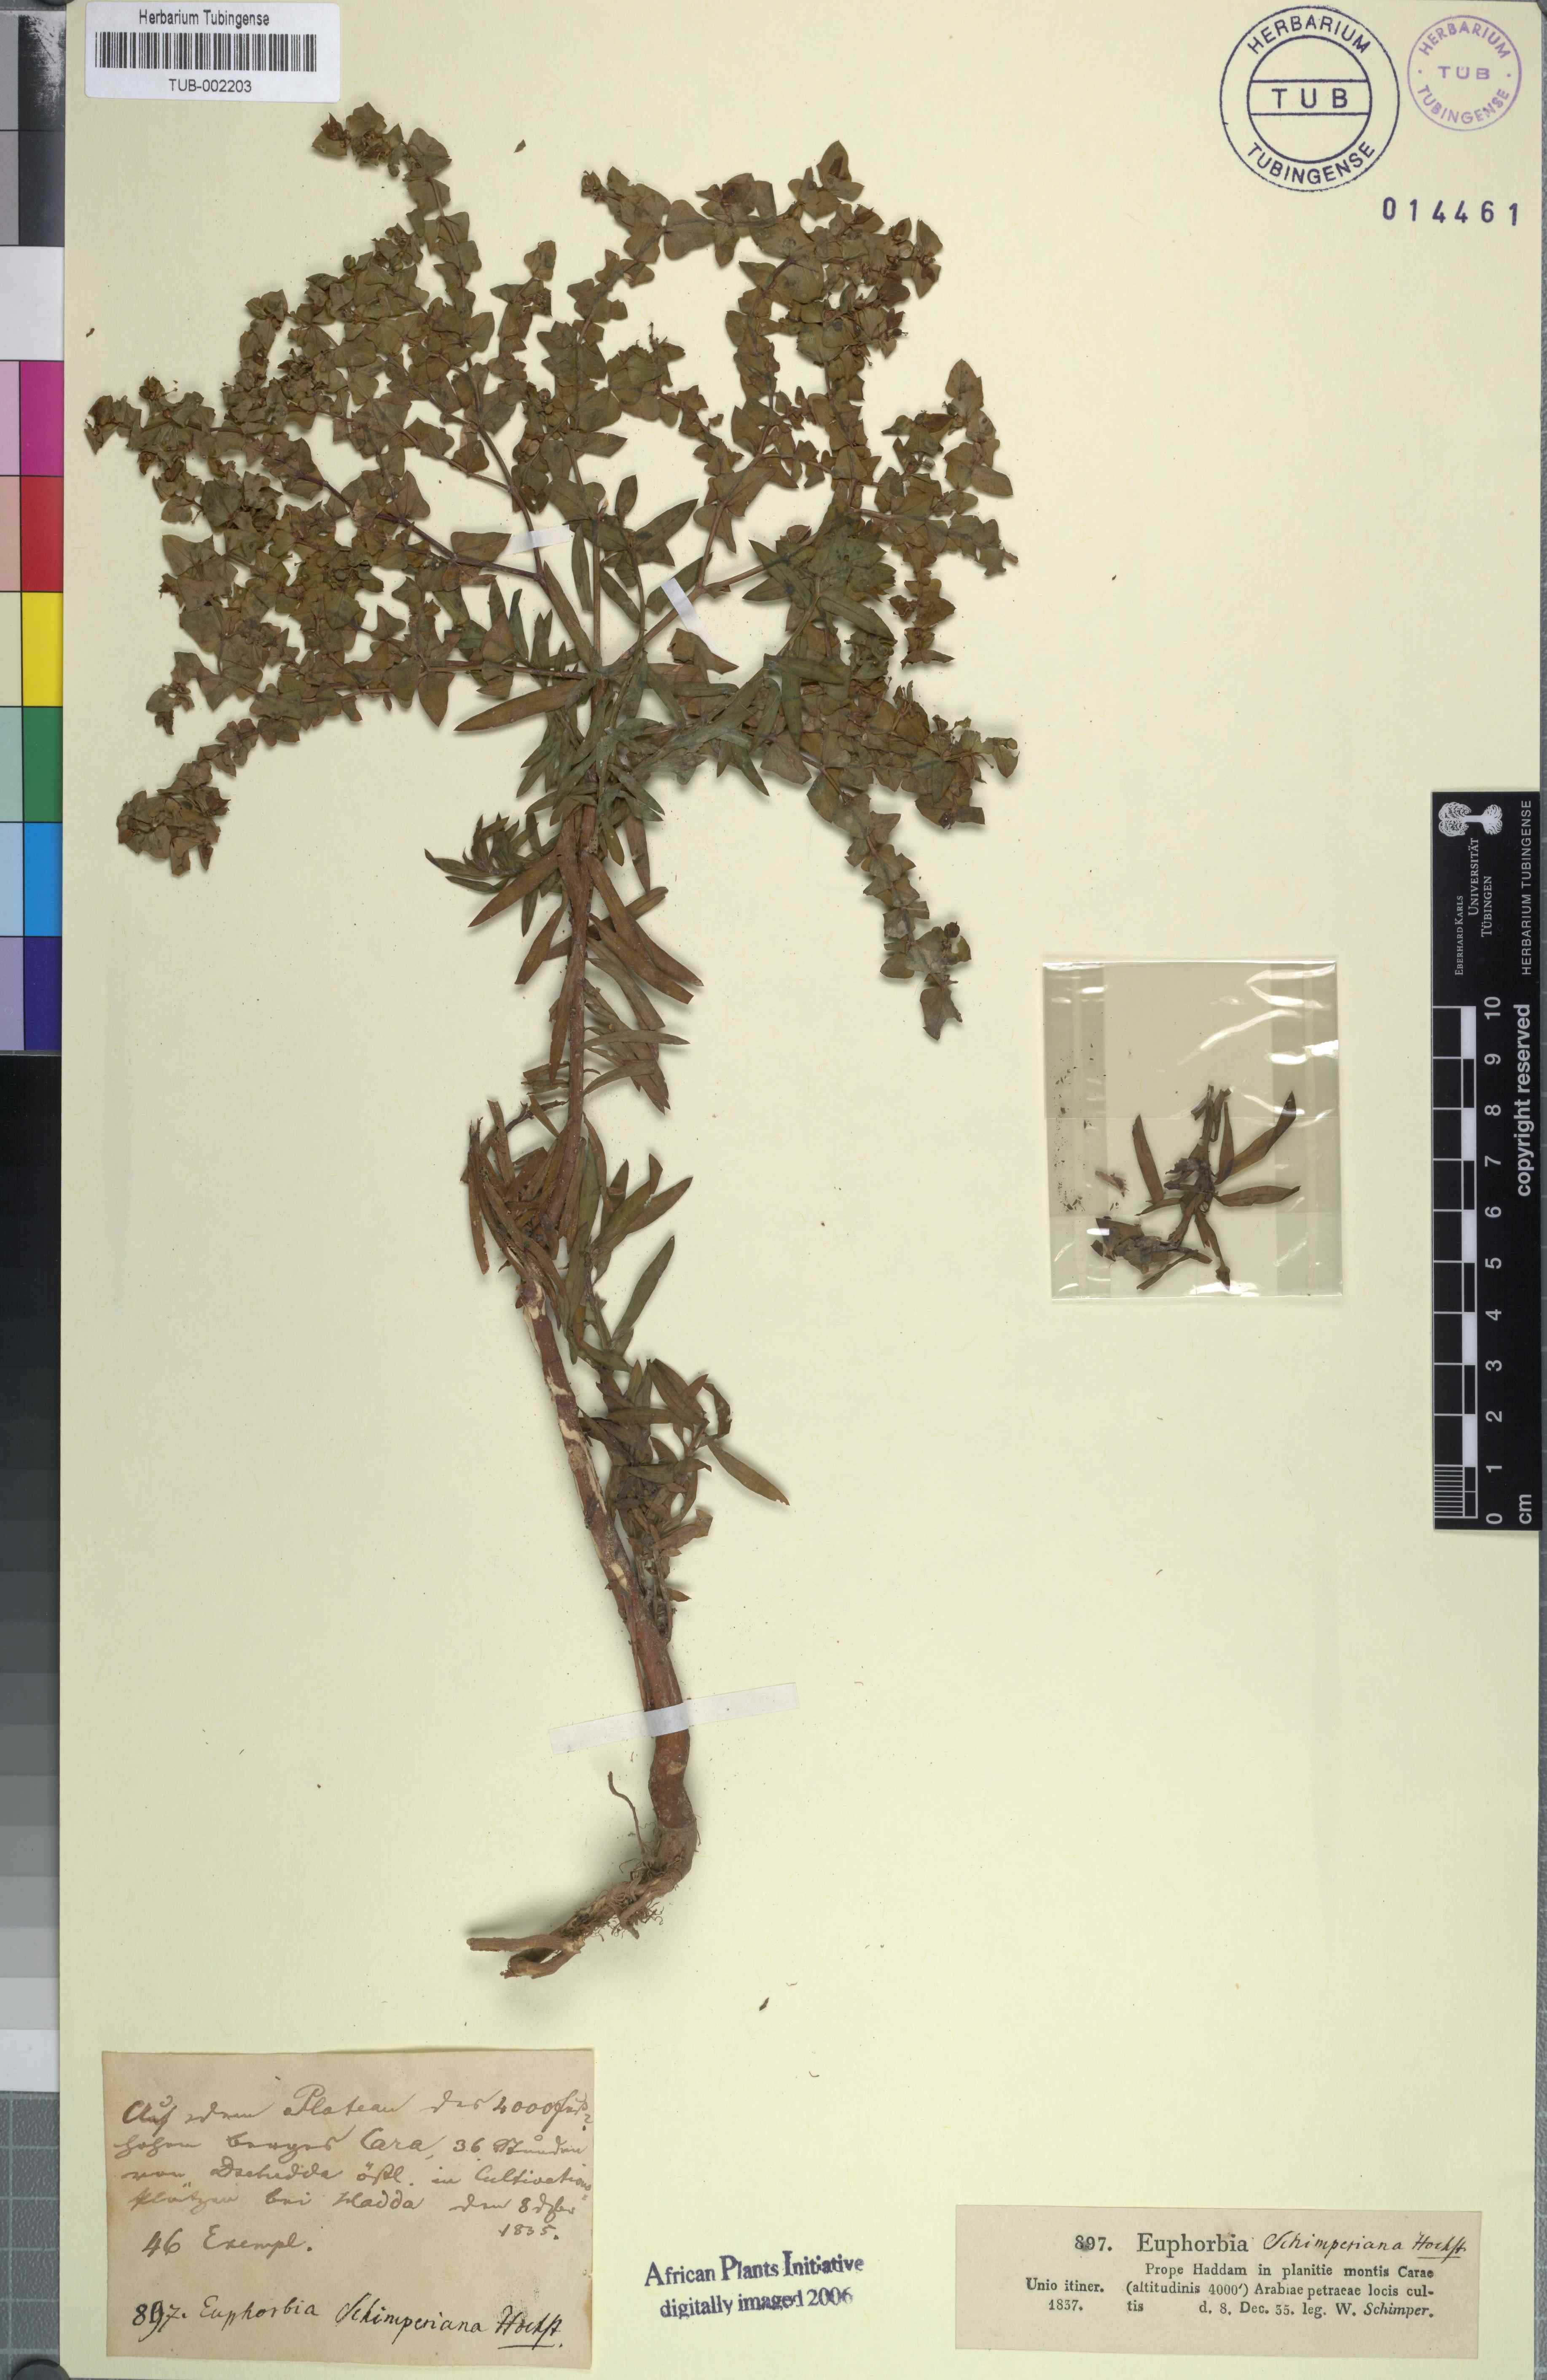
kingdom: Plantae
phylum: Tracheophyta
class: Magnoliopsida
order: Malpighiales
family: Euphorbiaceae
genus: Euphorbia
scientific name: Euphorbia schimperiana
